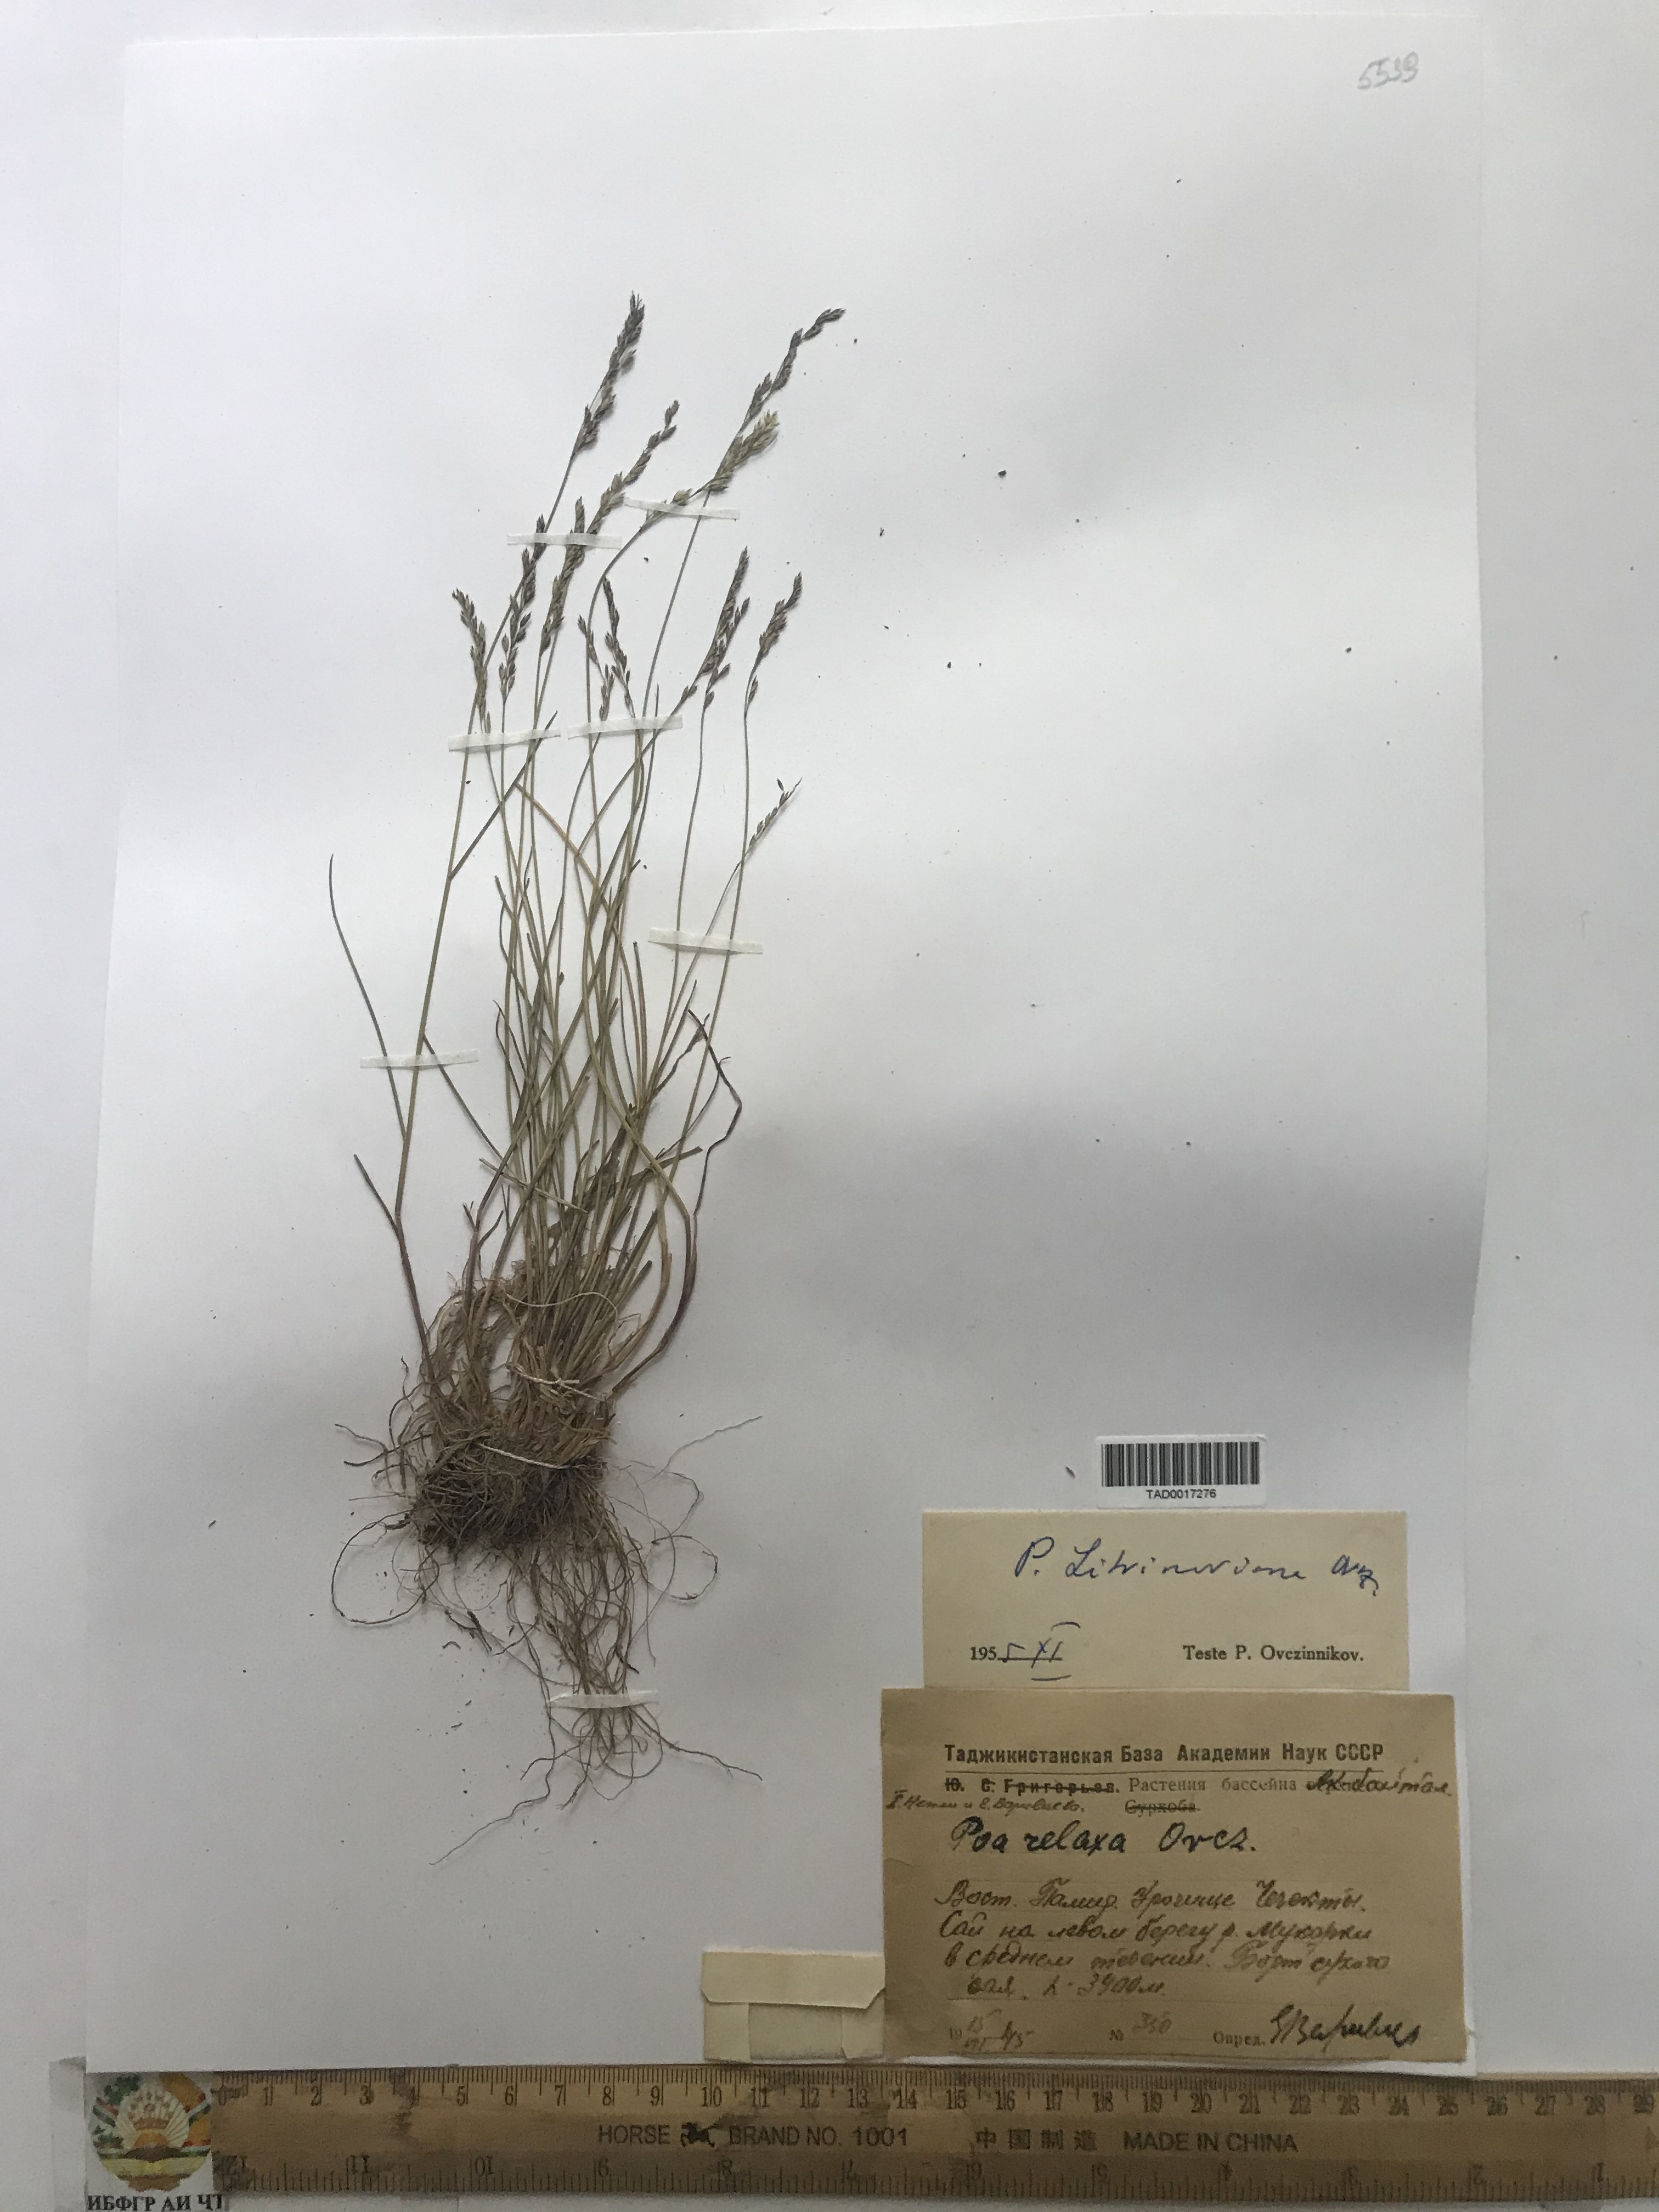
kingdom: Plantae
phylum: Tracheophyta
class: Liliopsida
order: Poales
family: Poaceae
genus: Poa
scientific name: Poa glauca
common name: Glaucous bluegrass
